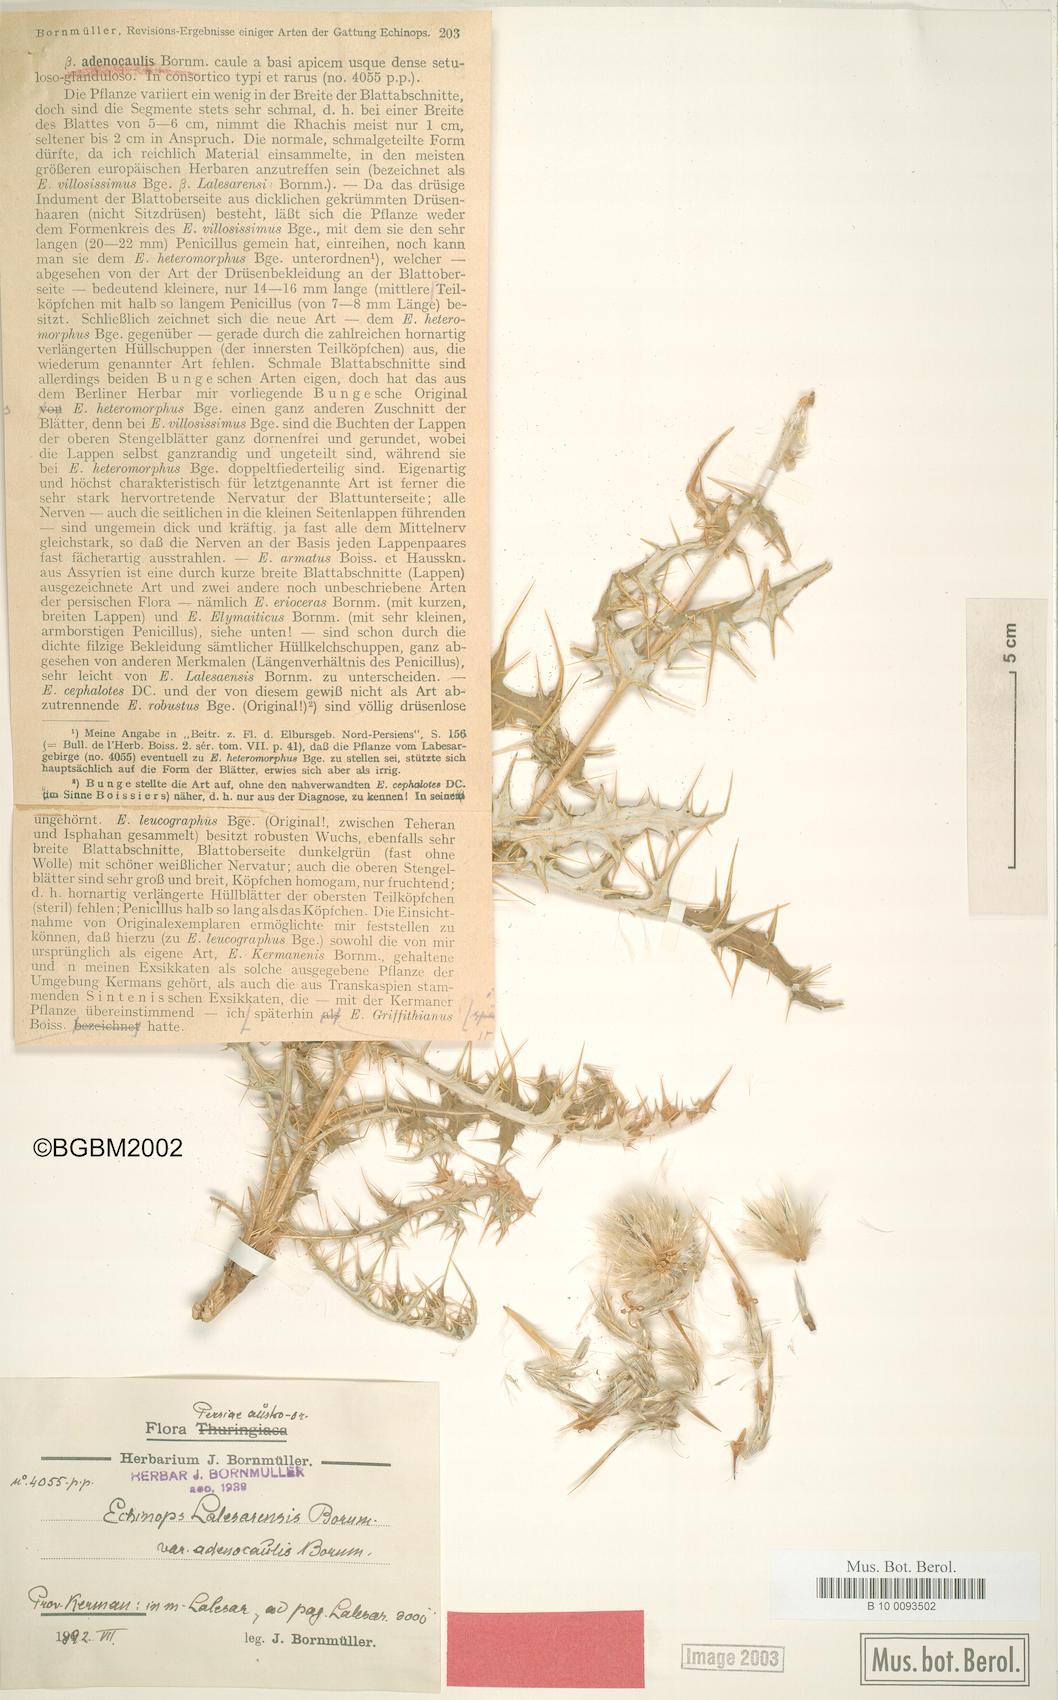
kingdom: Plantae
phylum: Tracheophyta
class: Magnoliopsida
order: Asterales
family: Asteraceae
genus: Echinops
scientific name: Echinops lalesarensis
